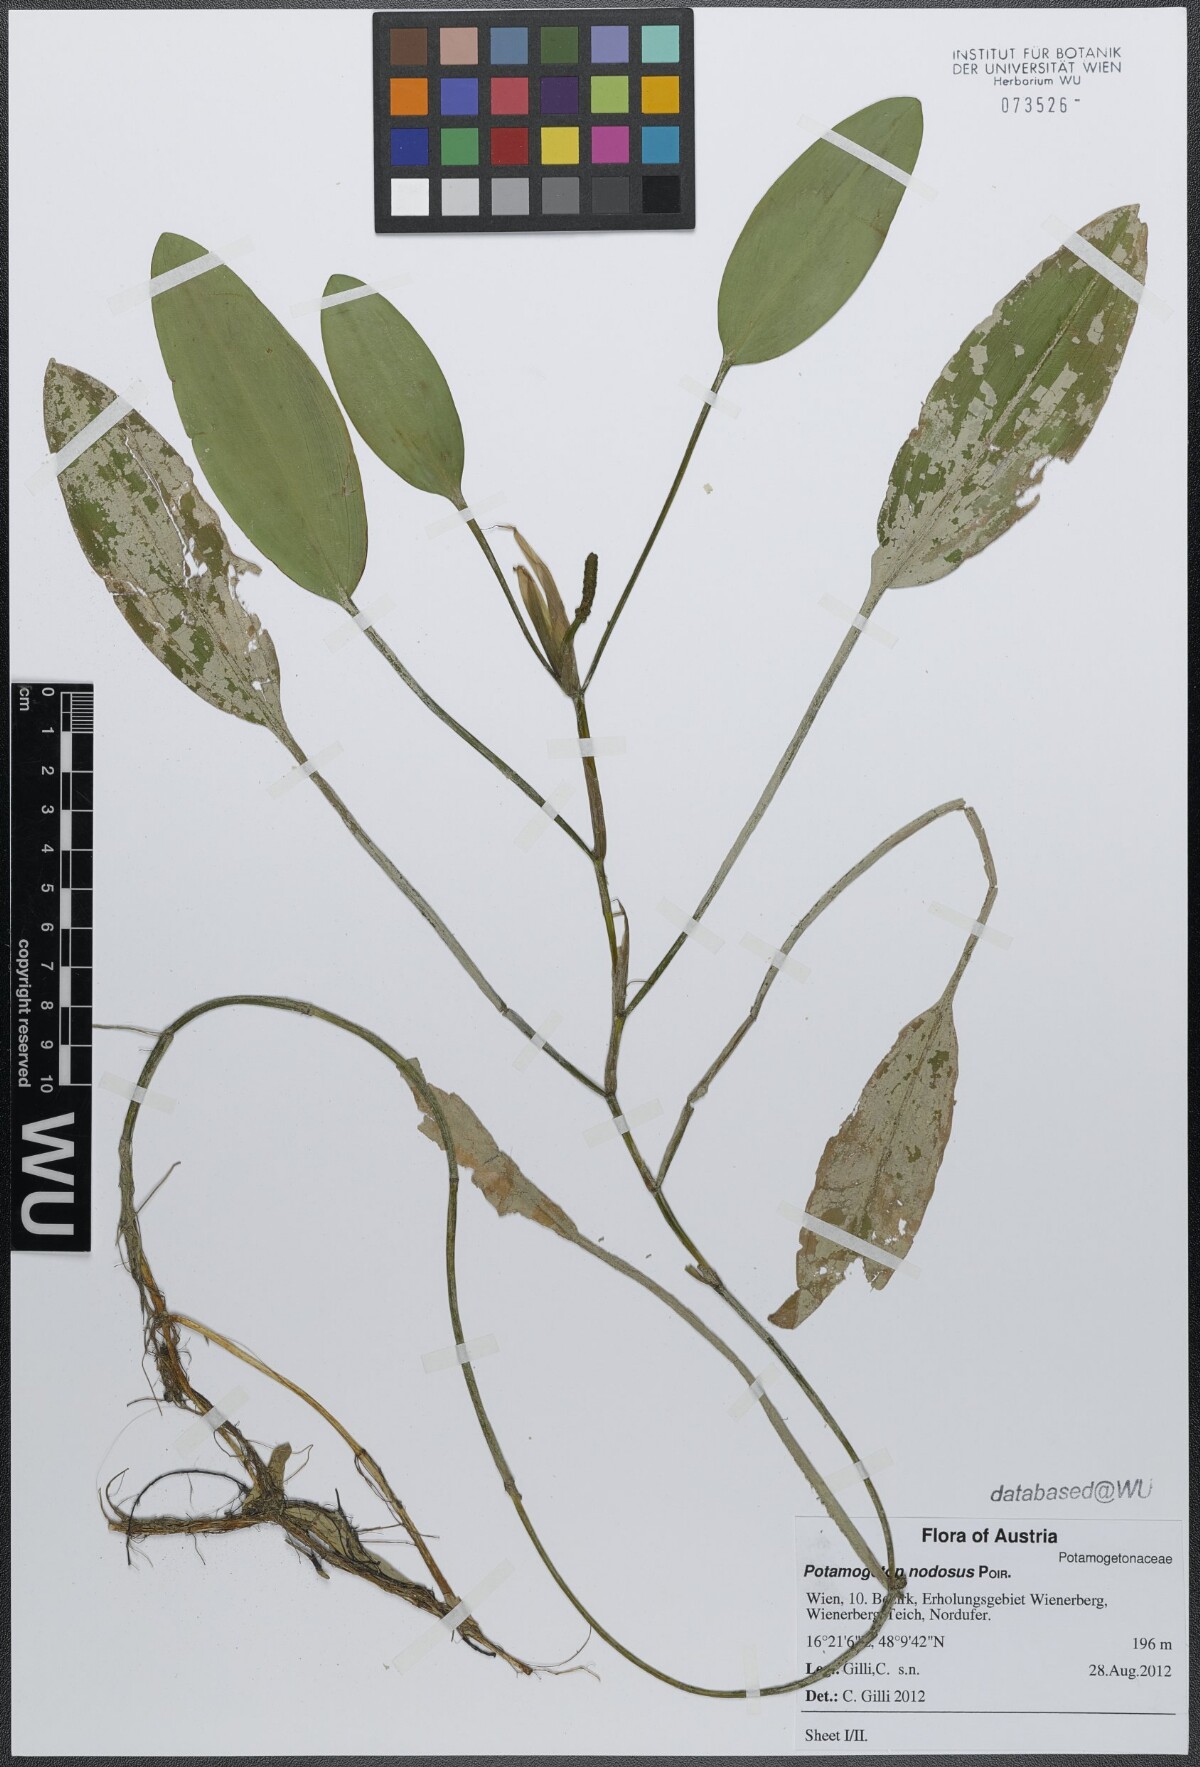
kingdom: Plantae
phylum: Tracheophyta
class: Liliopsida
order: Alismatales
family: Potamogetonaceae
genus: Potamogeton
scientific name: Potamogeton nodosus
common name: Loddon pondweed
